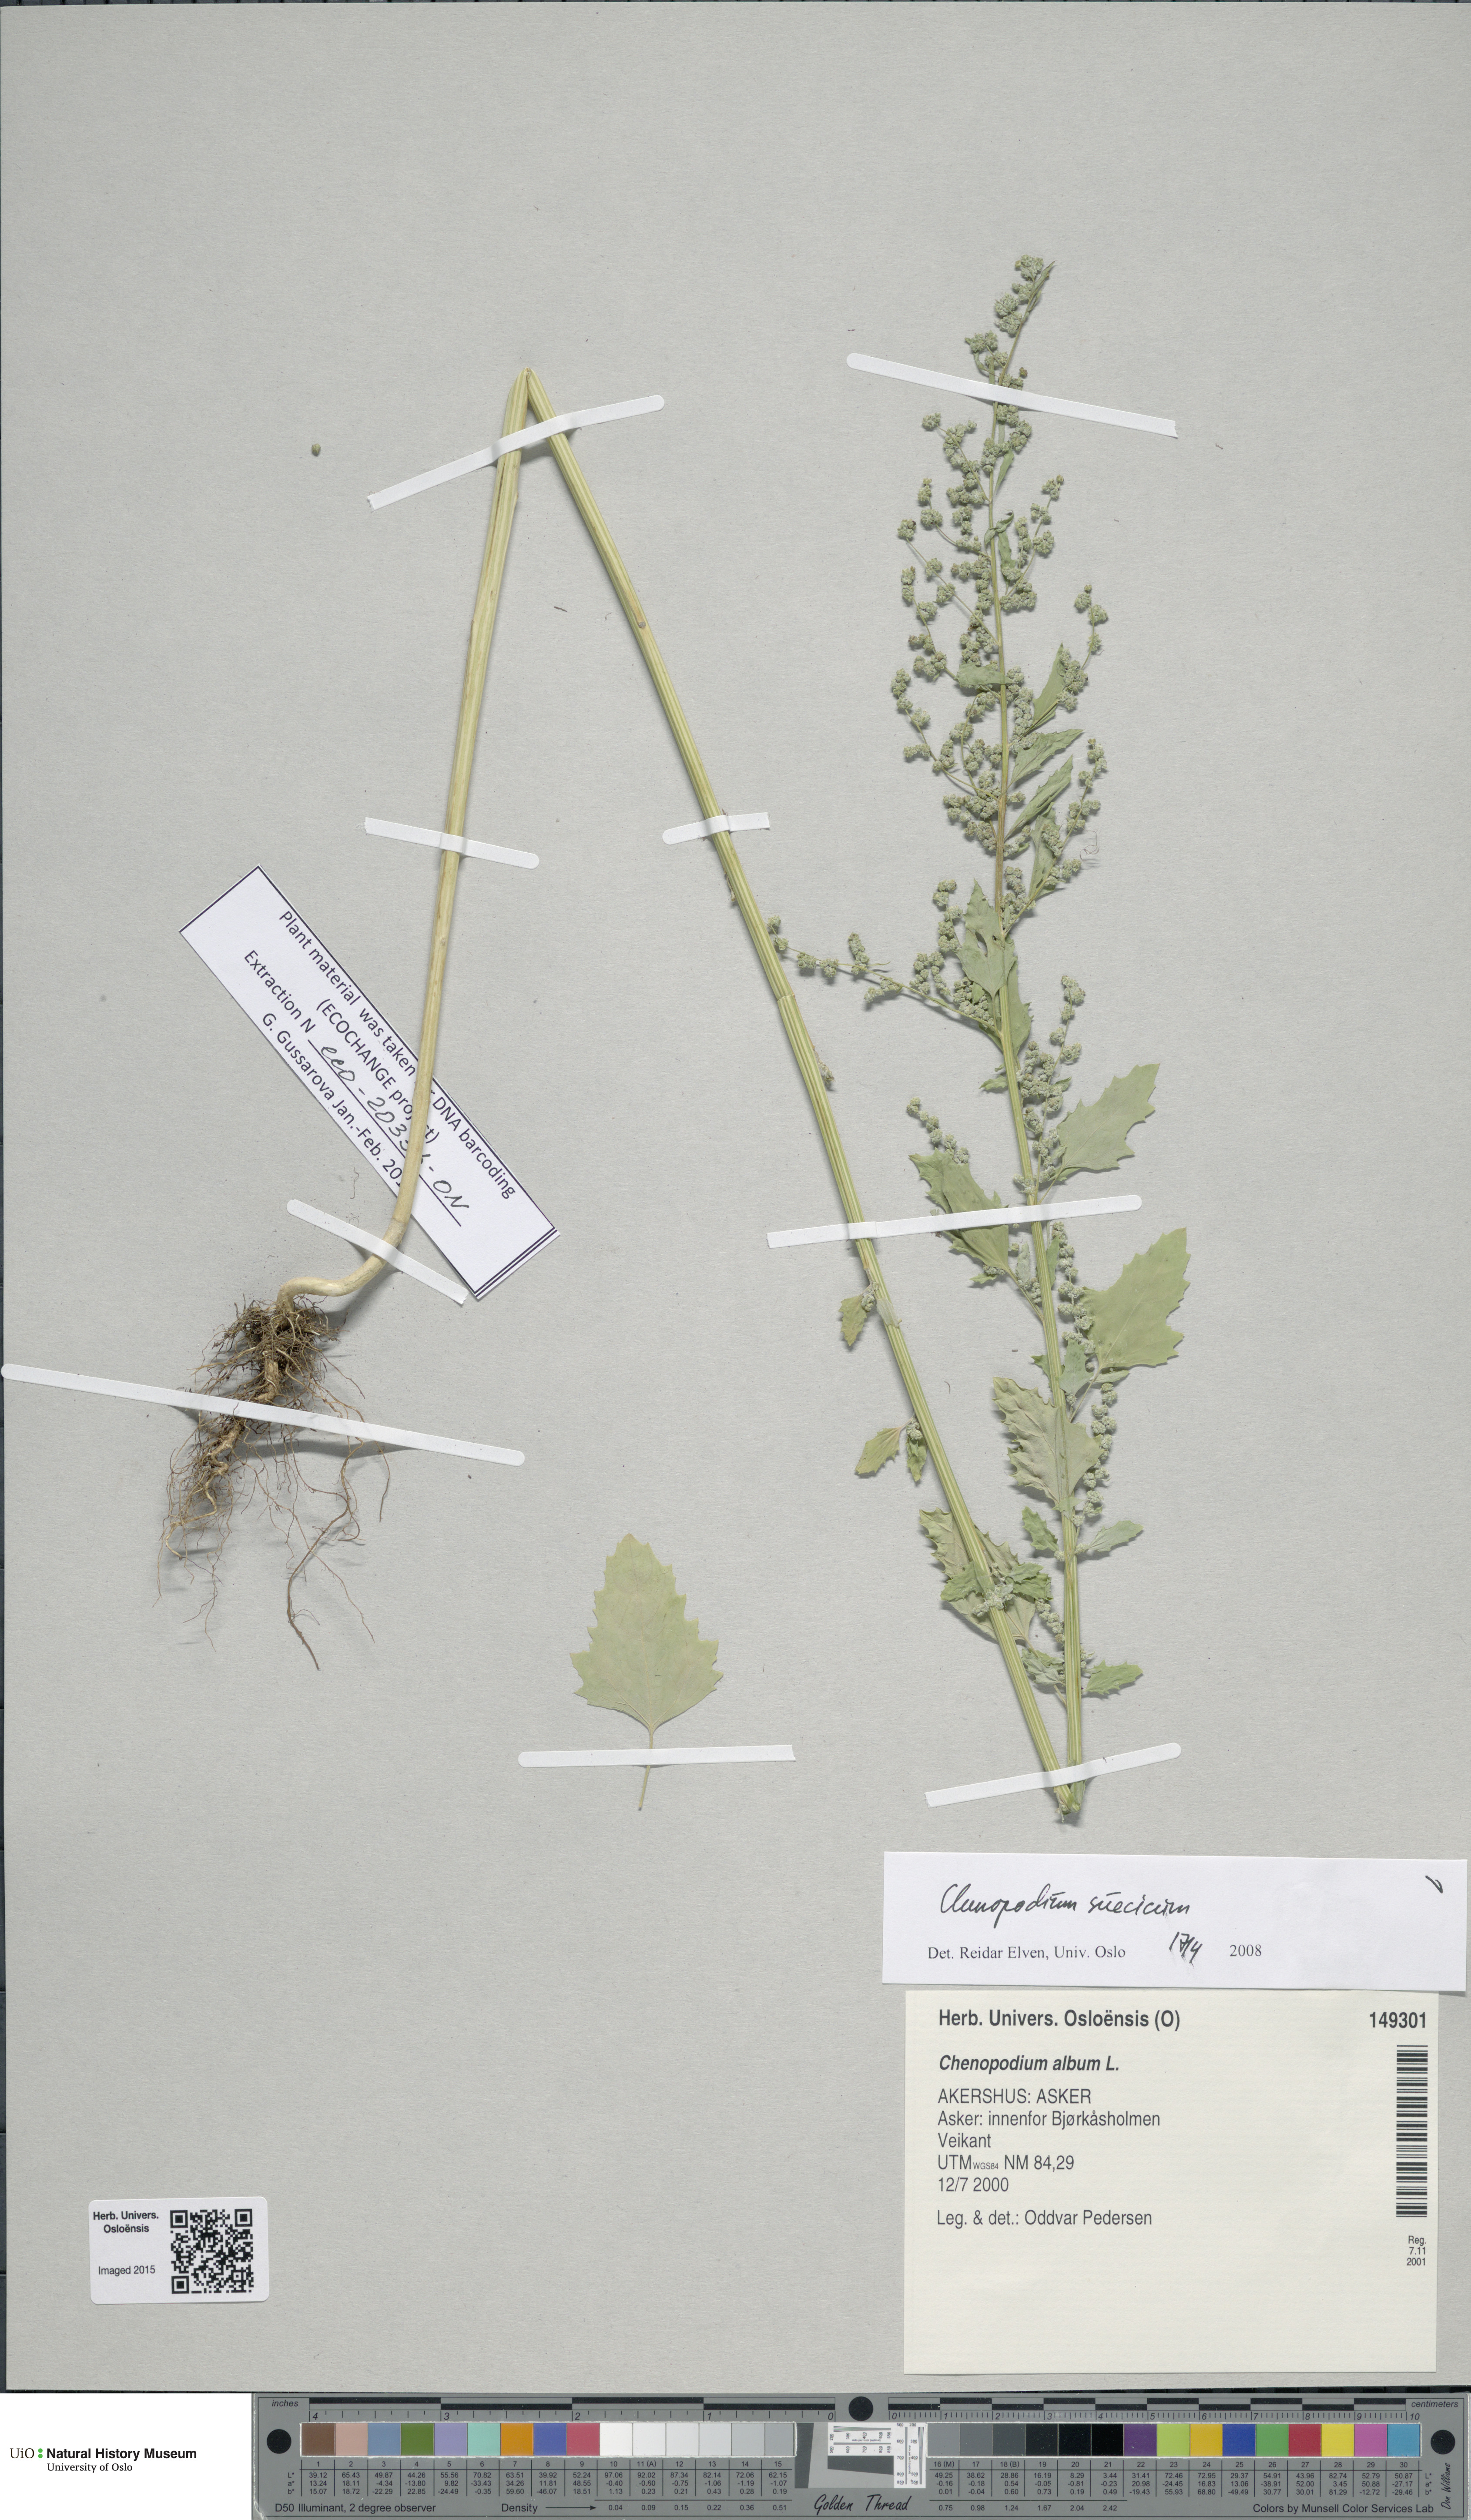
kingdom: Plantae
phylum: Tracheophyta
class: Magnoliopsida
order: Caryophyllales
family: Amaranthaceae
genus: Chenopodium
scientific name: Chenopodium suecicum
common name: Swedish goosefoot
